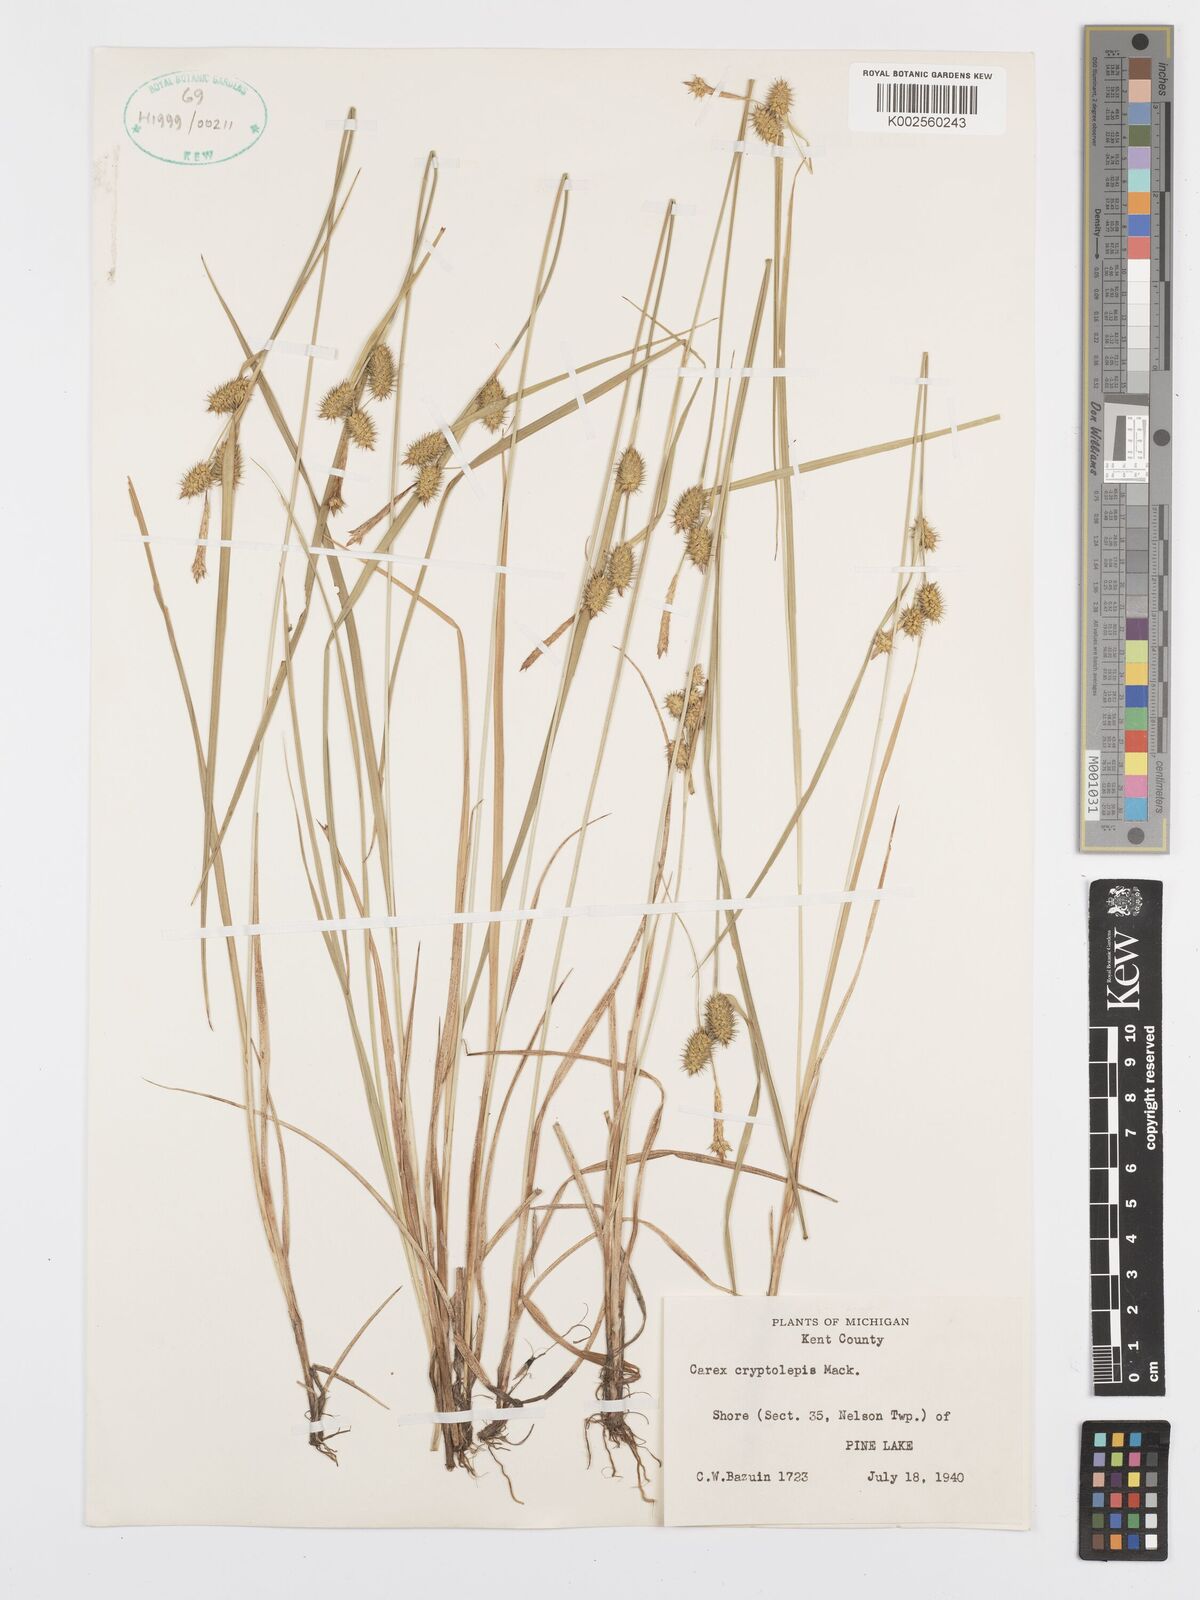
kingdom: Plantae
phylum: Tracheophyta
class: Liliopsida
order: Poales
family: Cyperaceae
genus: Carex
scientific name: Carex cryptolepis
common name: Northeastern sedge
